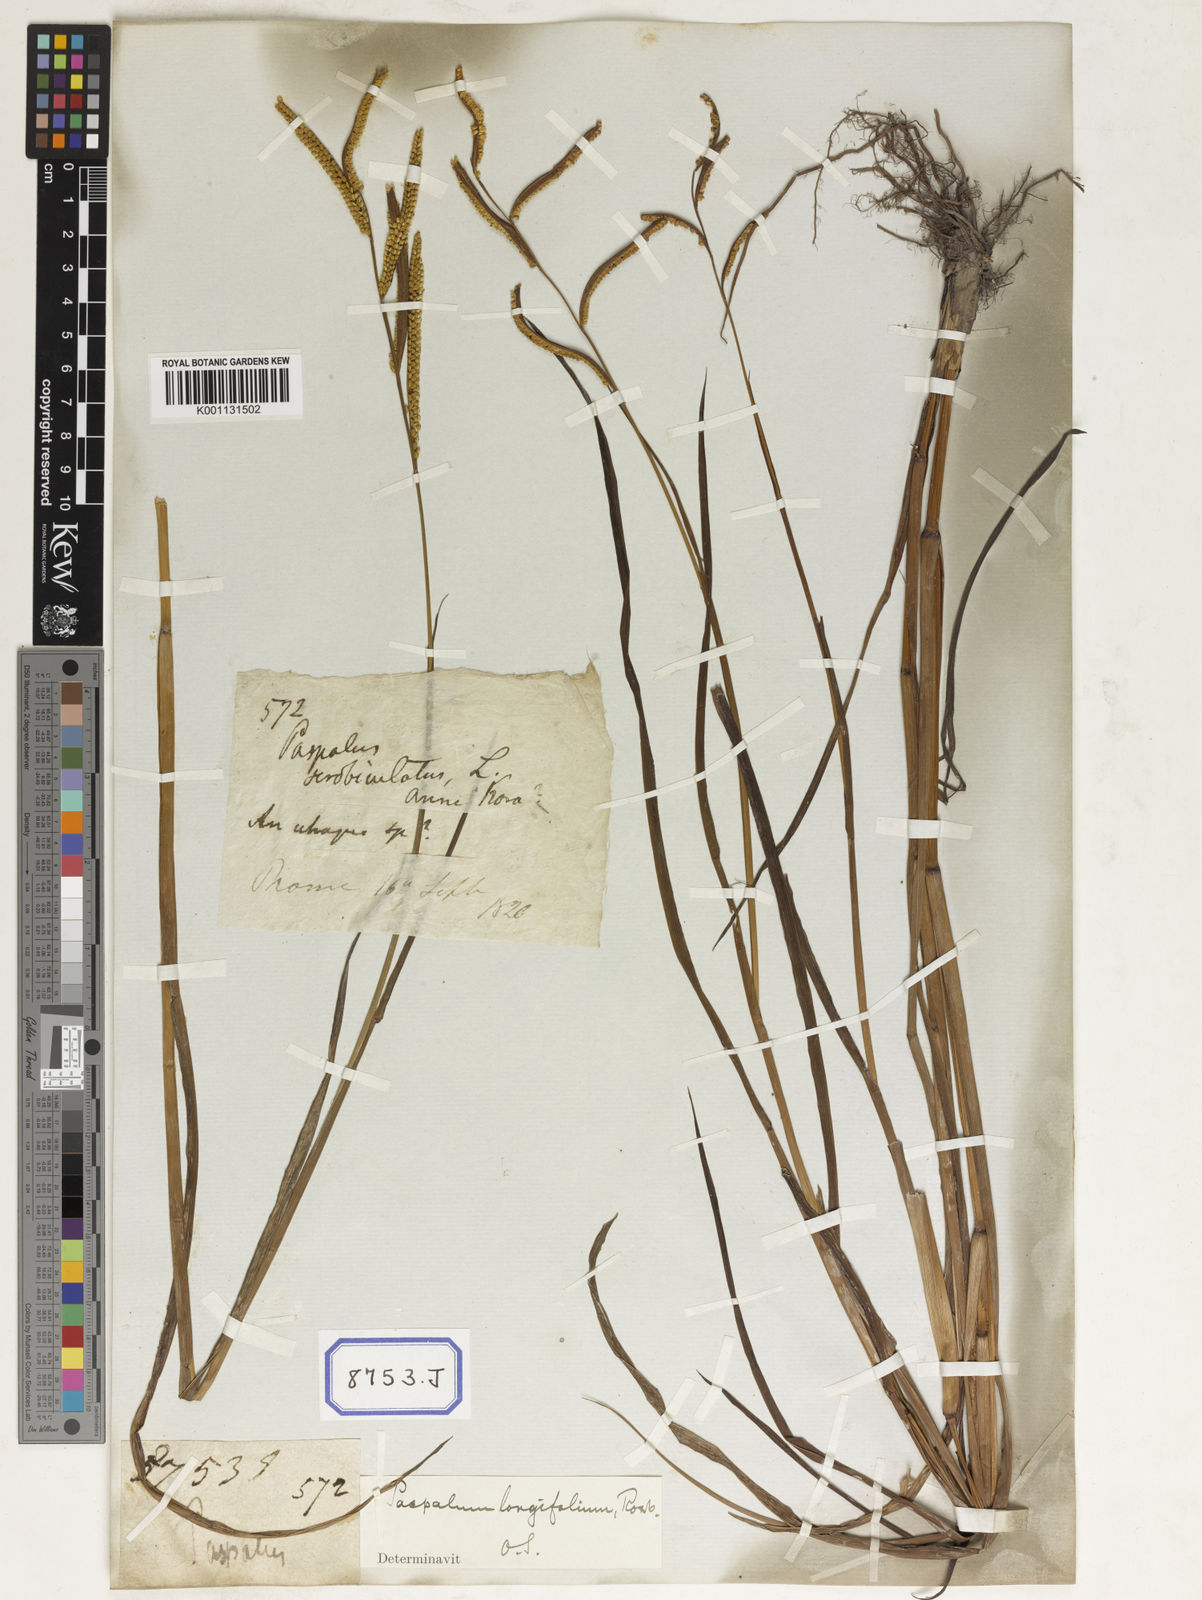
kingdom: Plantae
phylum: Tracheophyta
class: Liliopsida
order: Poales
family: Poaceae
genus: Paspalum
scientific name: Paspalum scrobiculatum
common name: Kodo millet
